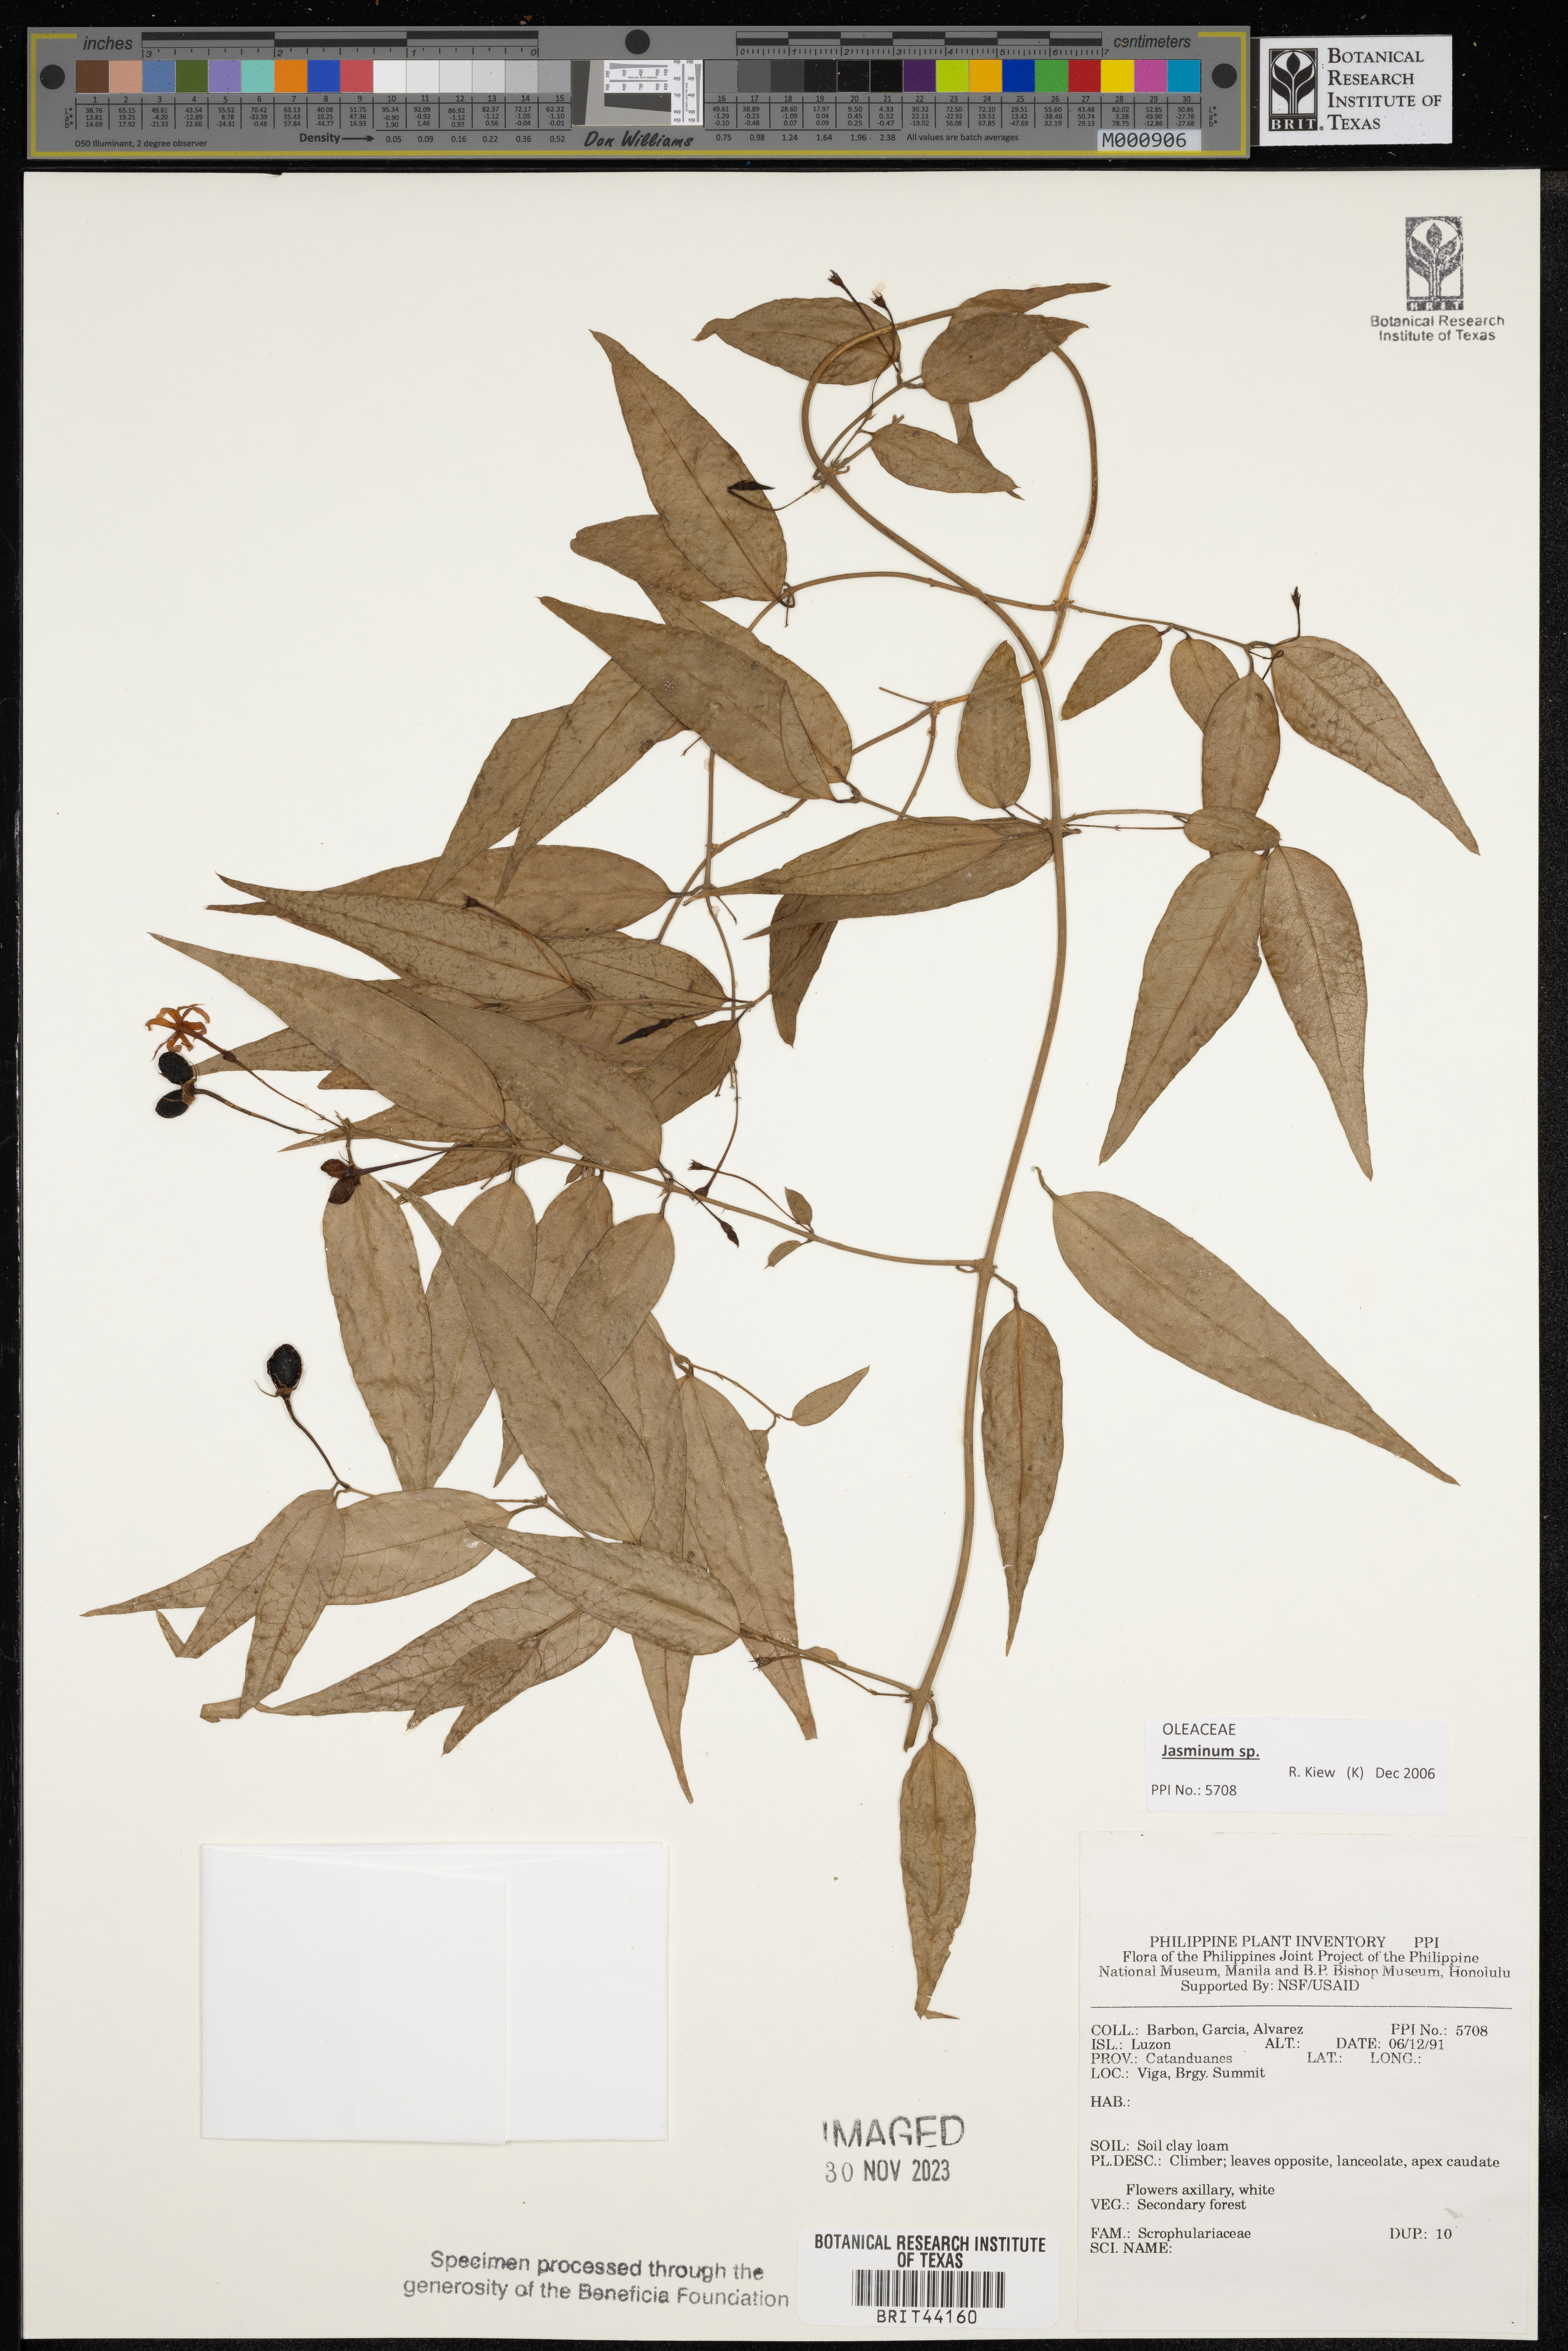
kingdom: Plantae
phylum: Tracheophyta
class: Magnoliopsida
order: Lamiales
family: Scrophulariaceae
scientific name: Scrophulariaceae
